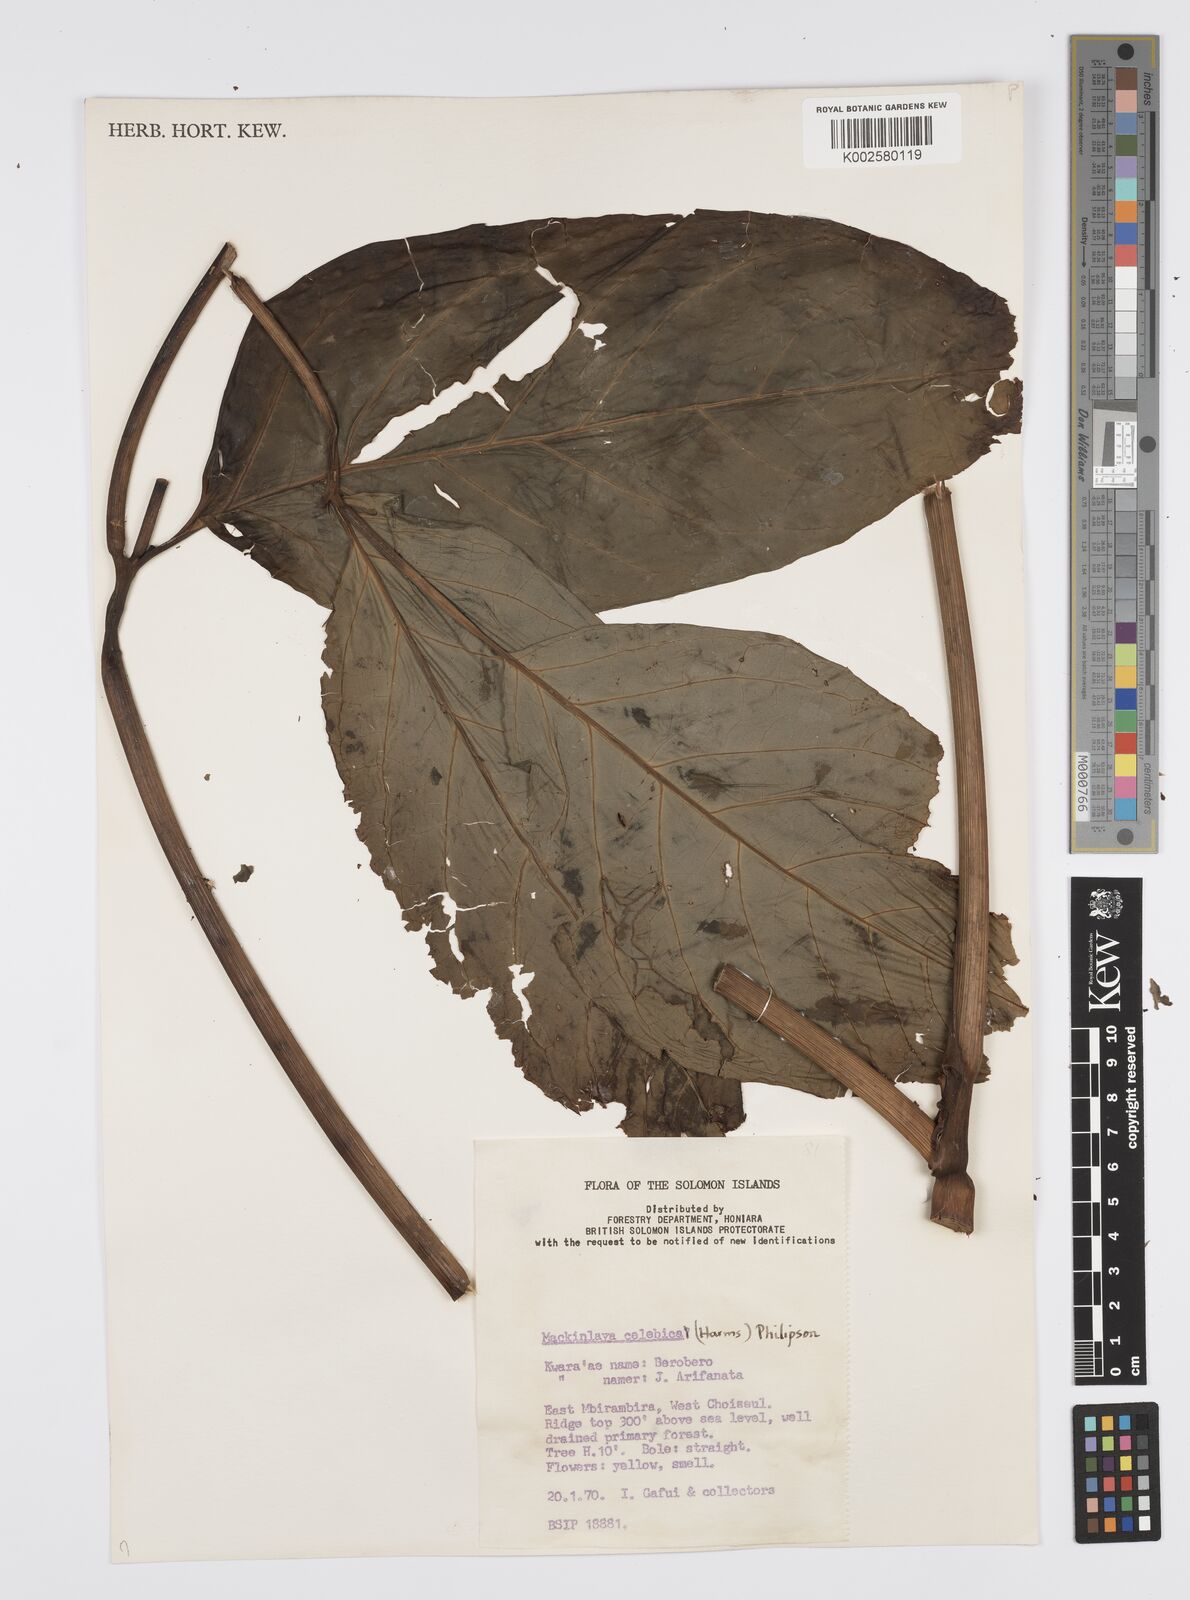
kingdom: Plantae
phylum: Tracheophyta
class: Magnoliopsida
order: Apiales
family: Apiaceae
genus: Mackinlaya
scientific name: Mackinlaya celebica
